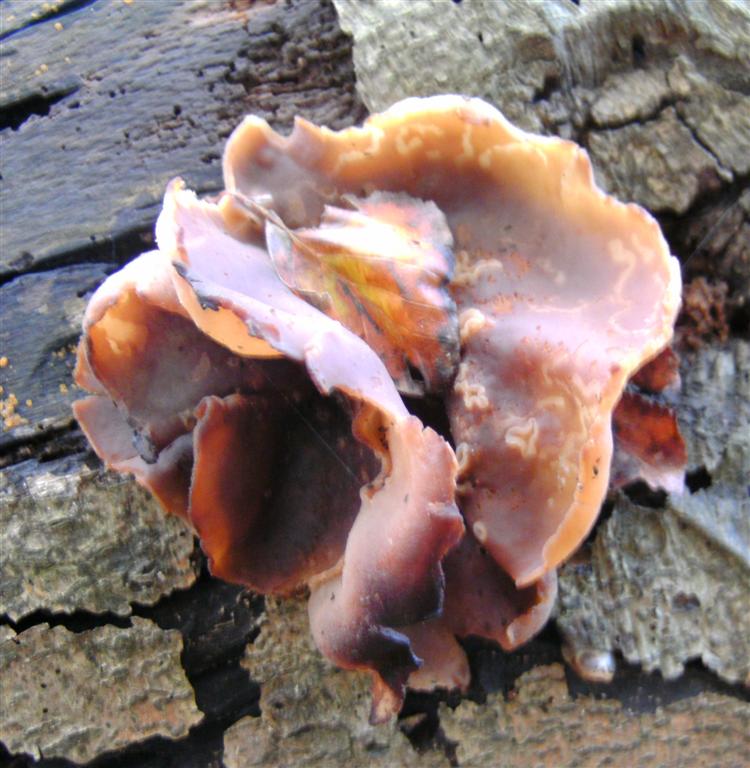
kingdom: Fungi
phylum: Ascomycota
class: Pezizomycetes
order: Pezizales
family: Pezizaceae
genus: Peziza
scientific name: Peziza vesiculosa
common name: blære-bægersvamp
